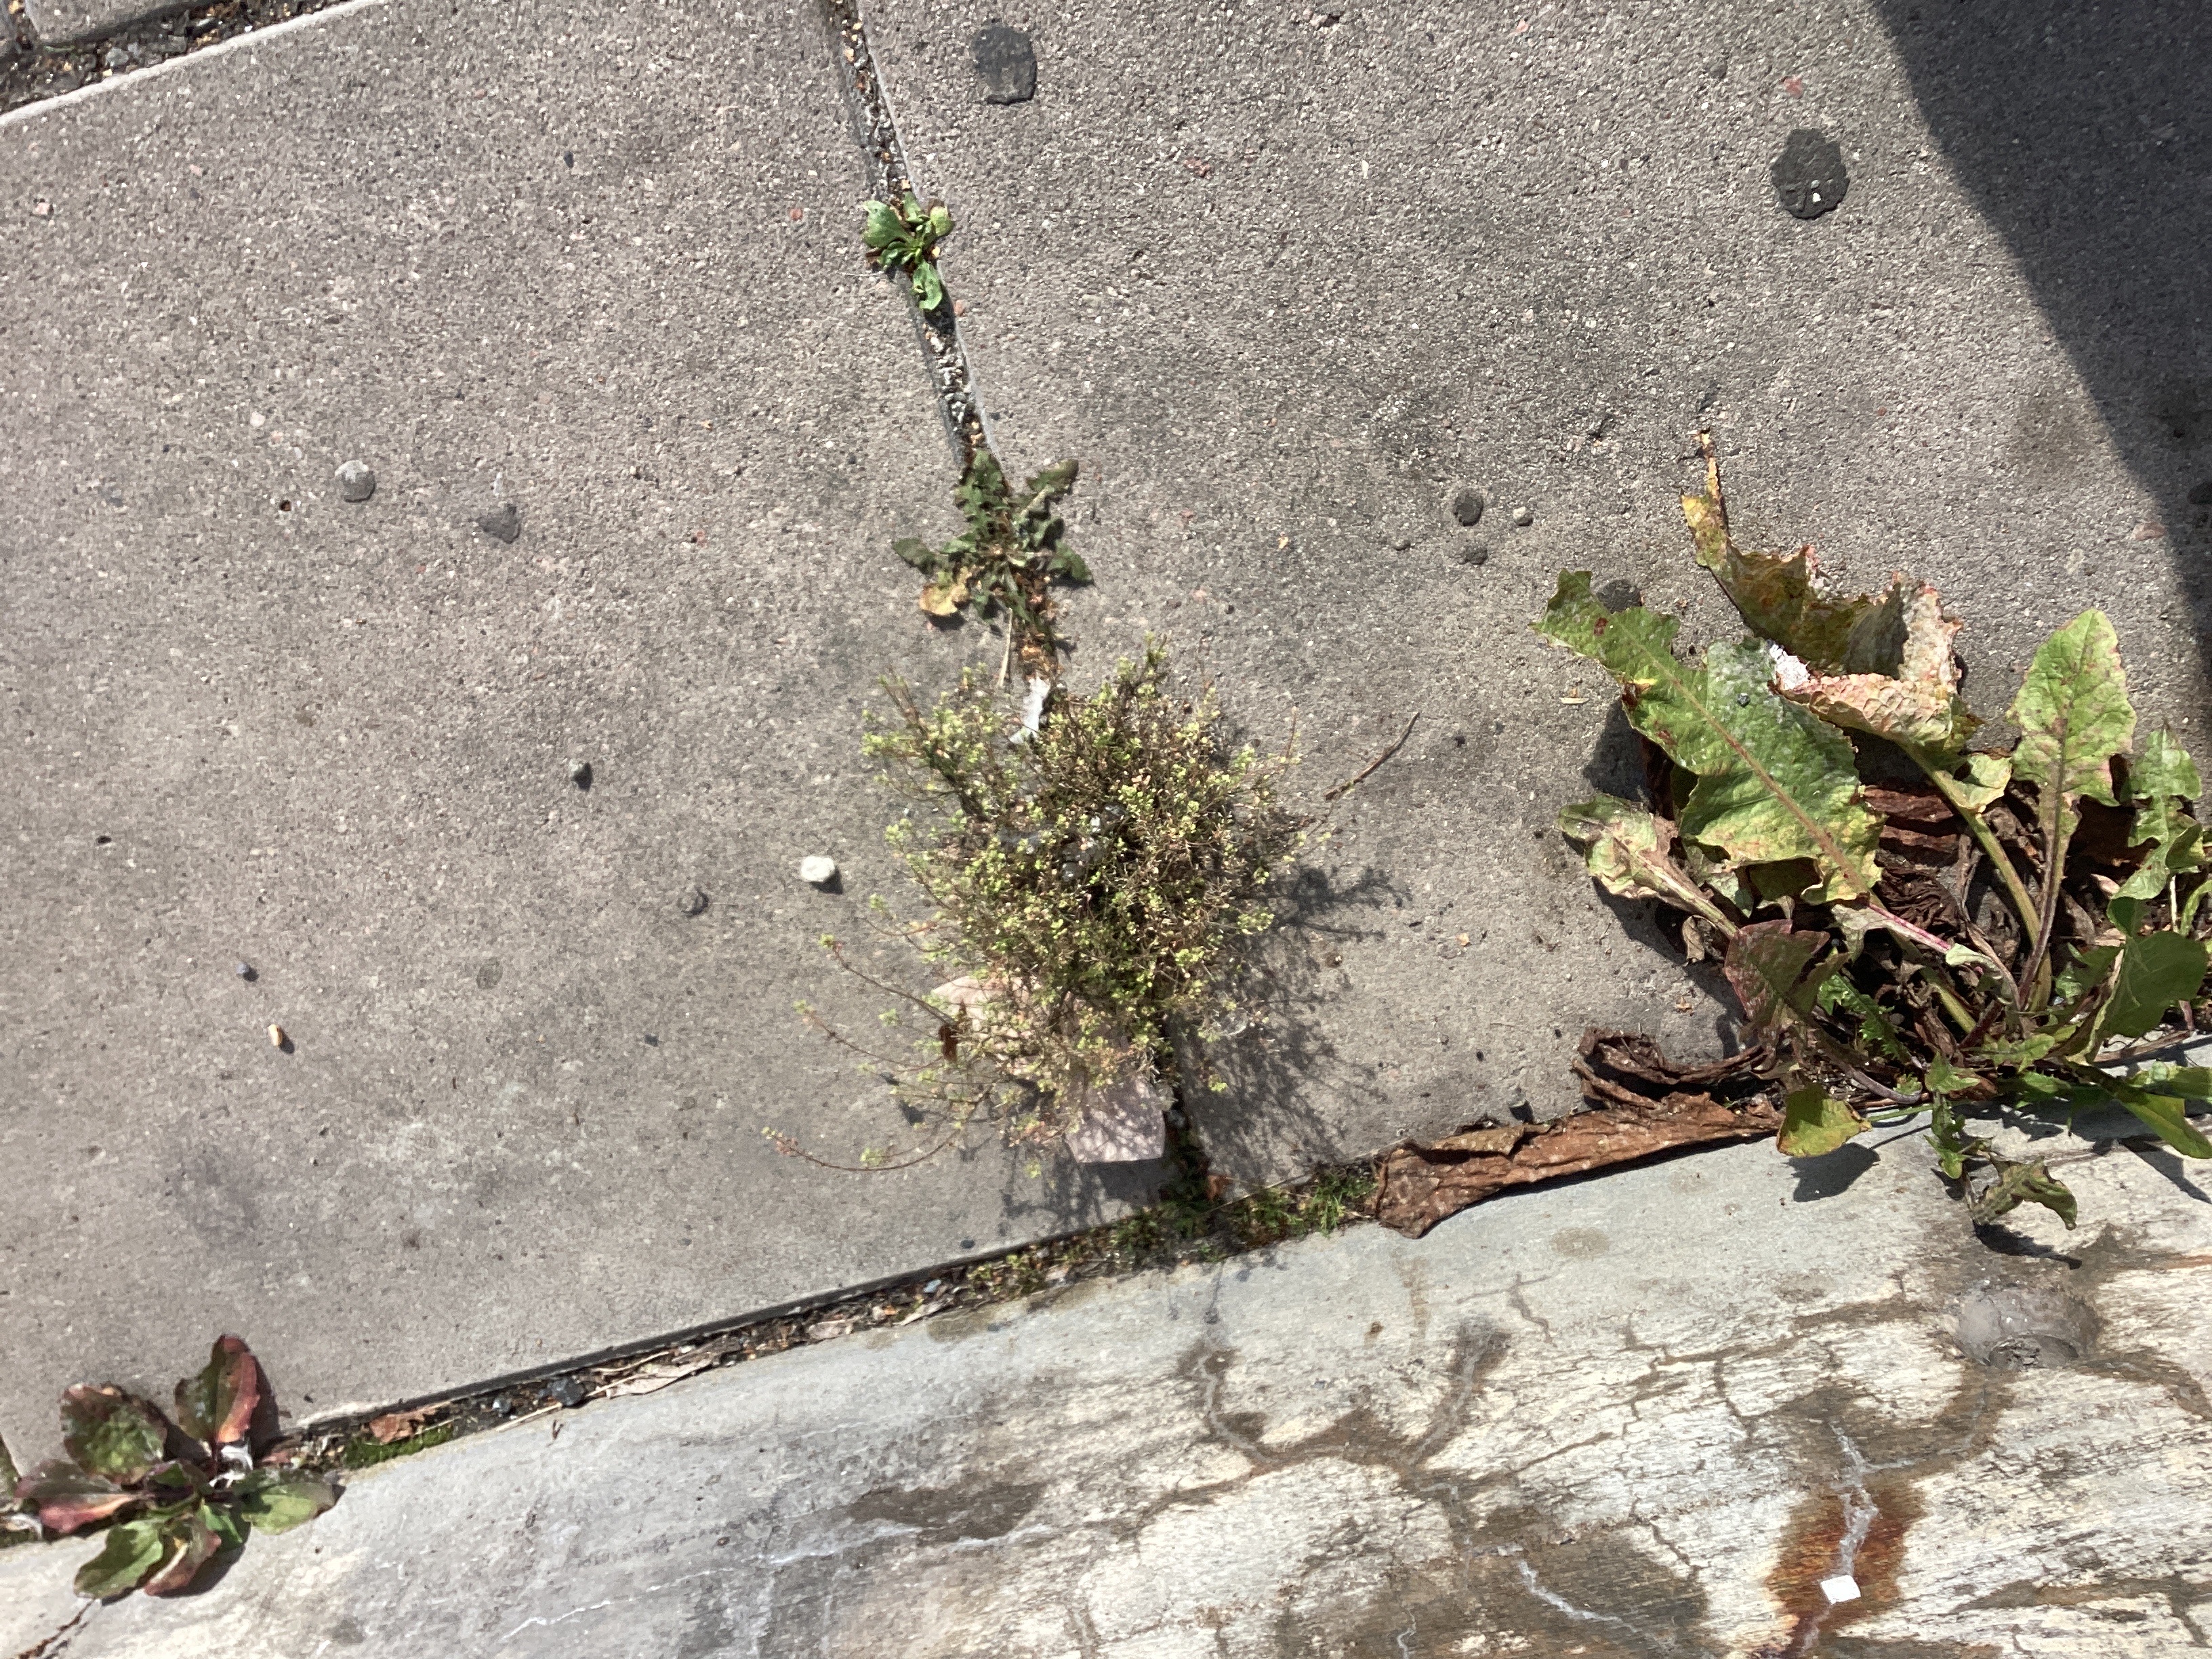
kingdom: Plantae
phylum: Tracheophyta
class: Magnoliopsida
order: Brassicales
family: Brassicaceae
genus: Lepidium
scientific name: Lepidium ruderale
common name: gáhttakrássa
